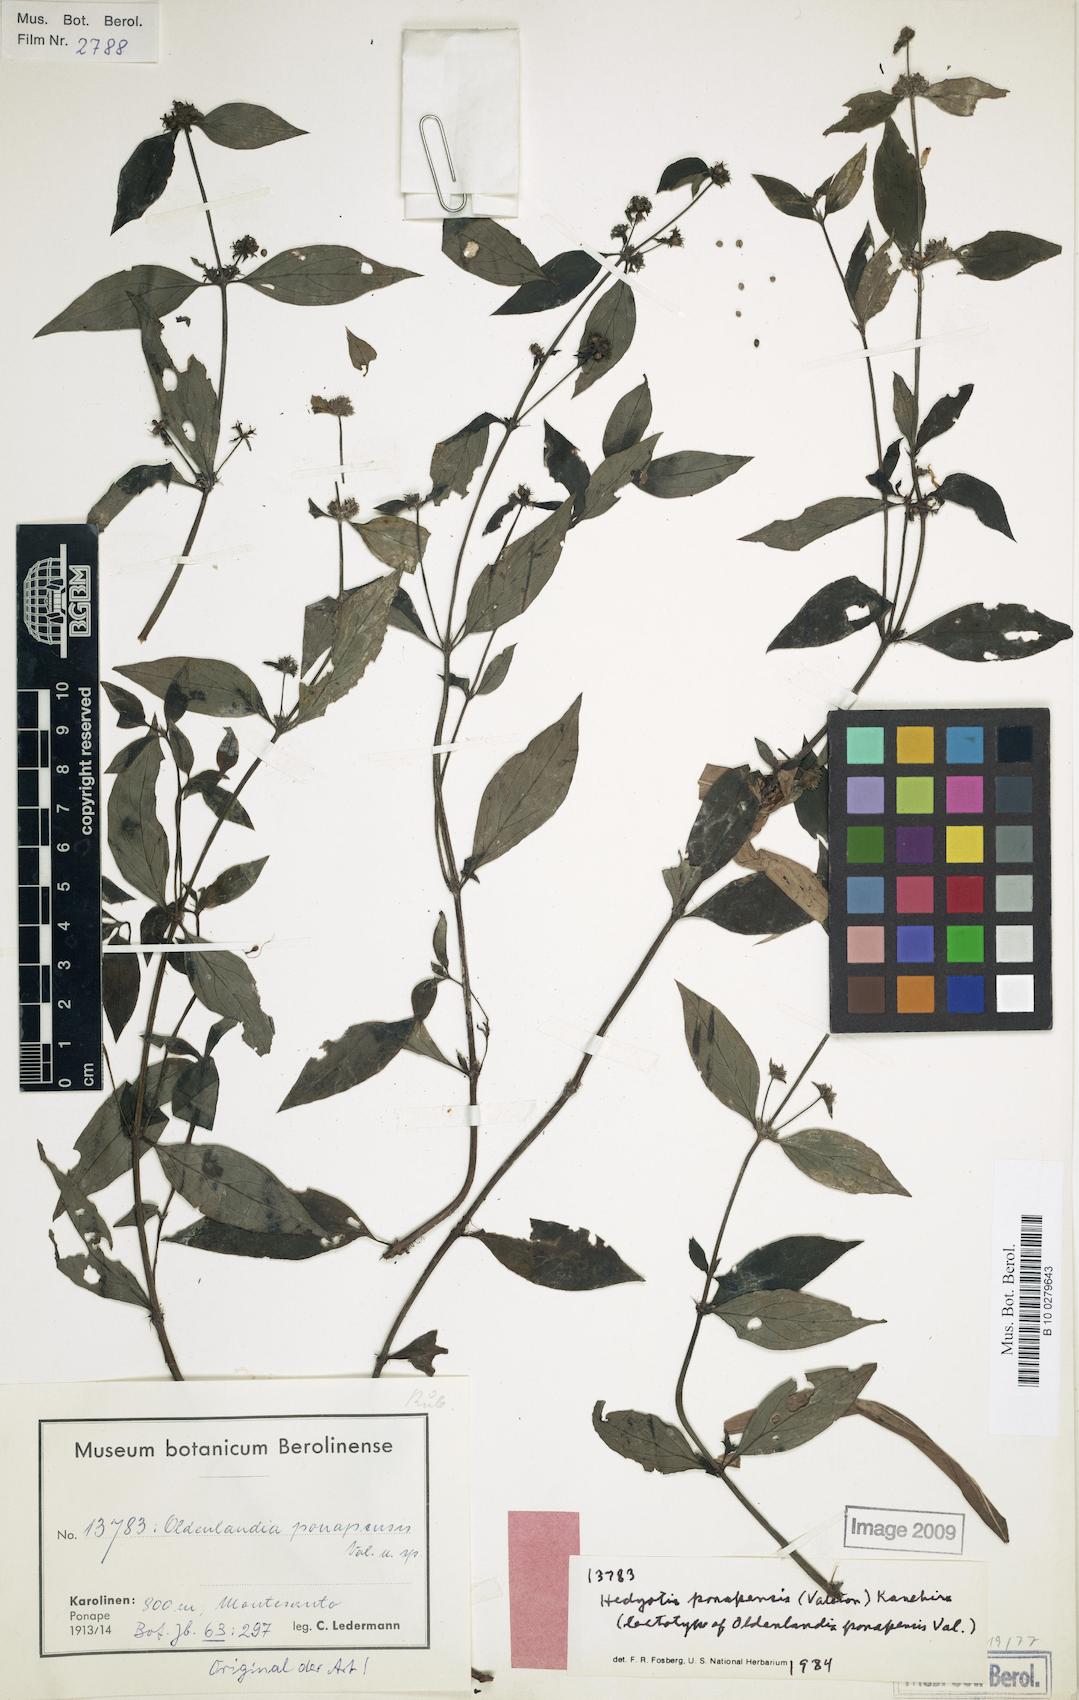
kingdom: Plantae
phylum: Tracheophyta
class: Magnoliopsida
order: Gentianales
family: Rubiaceae
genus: Hedyotis
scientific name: Hedyotis ponapensis
